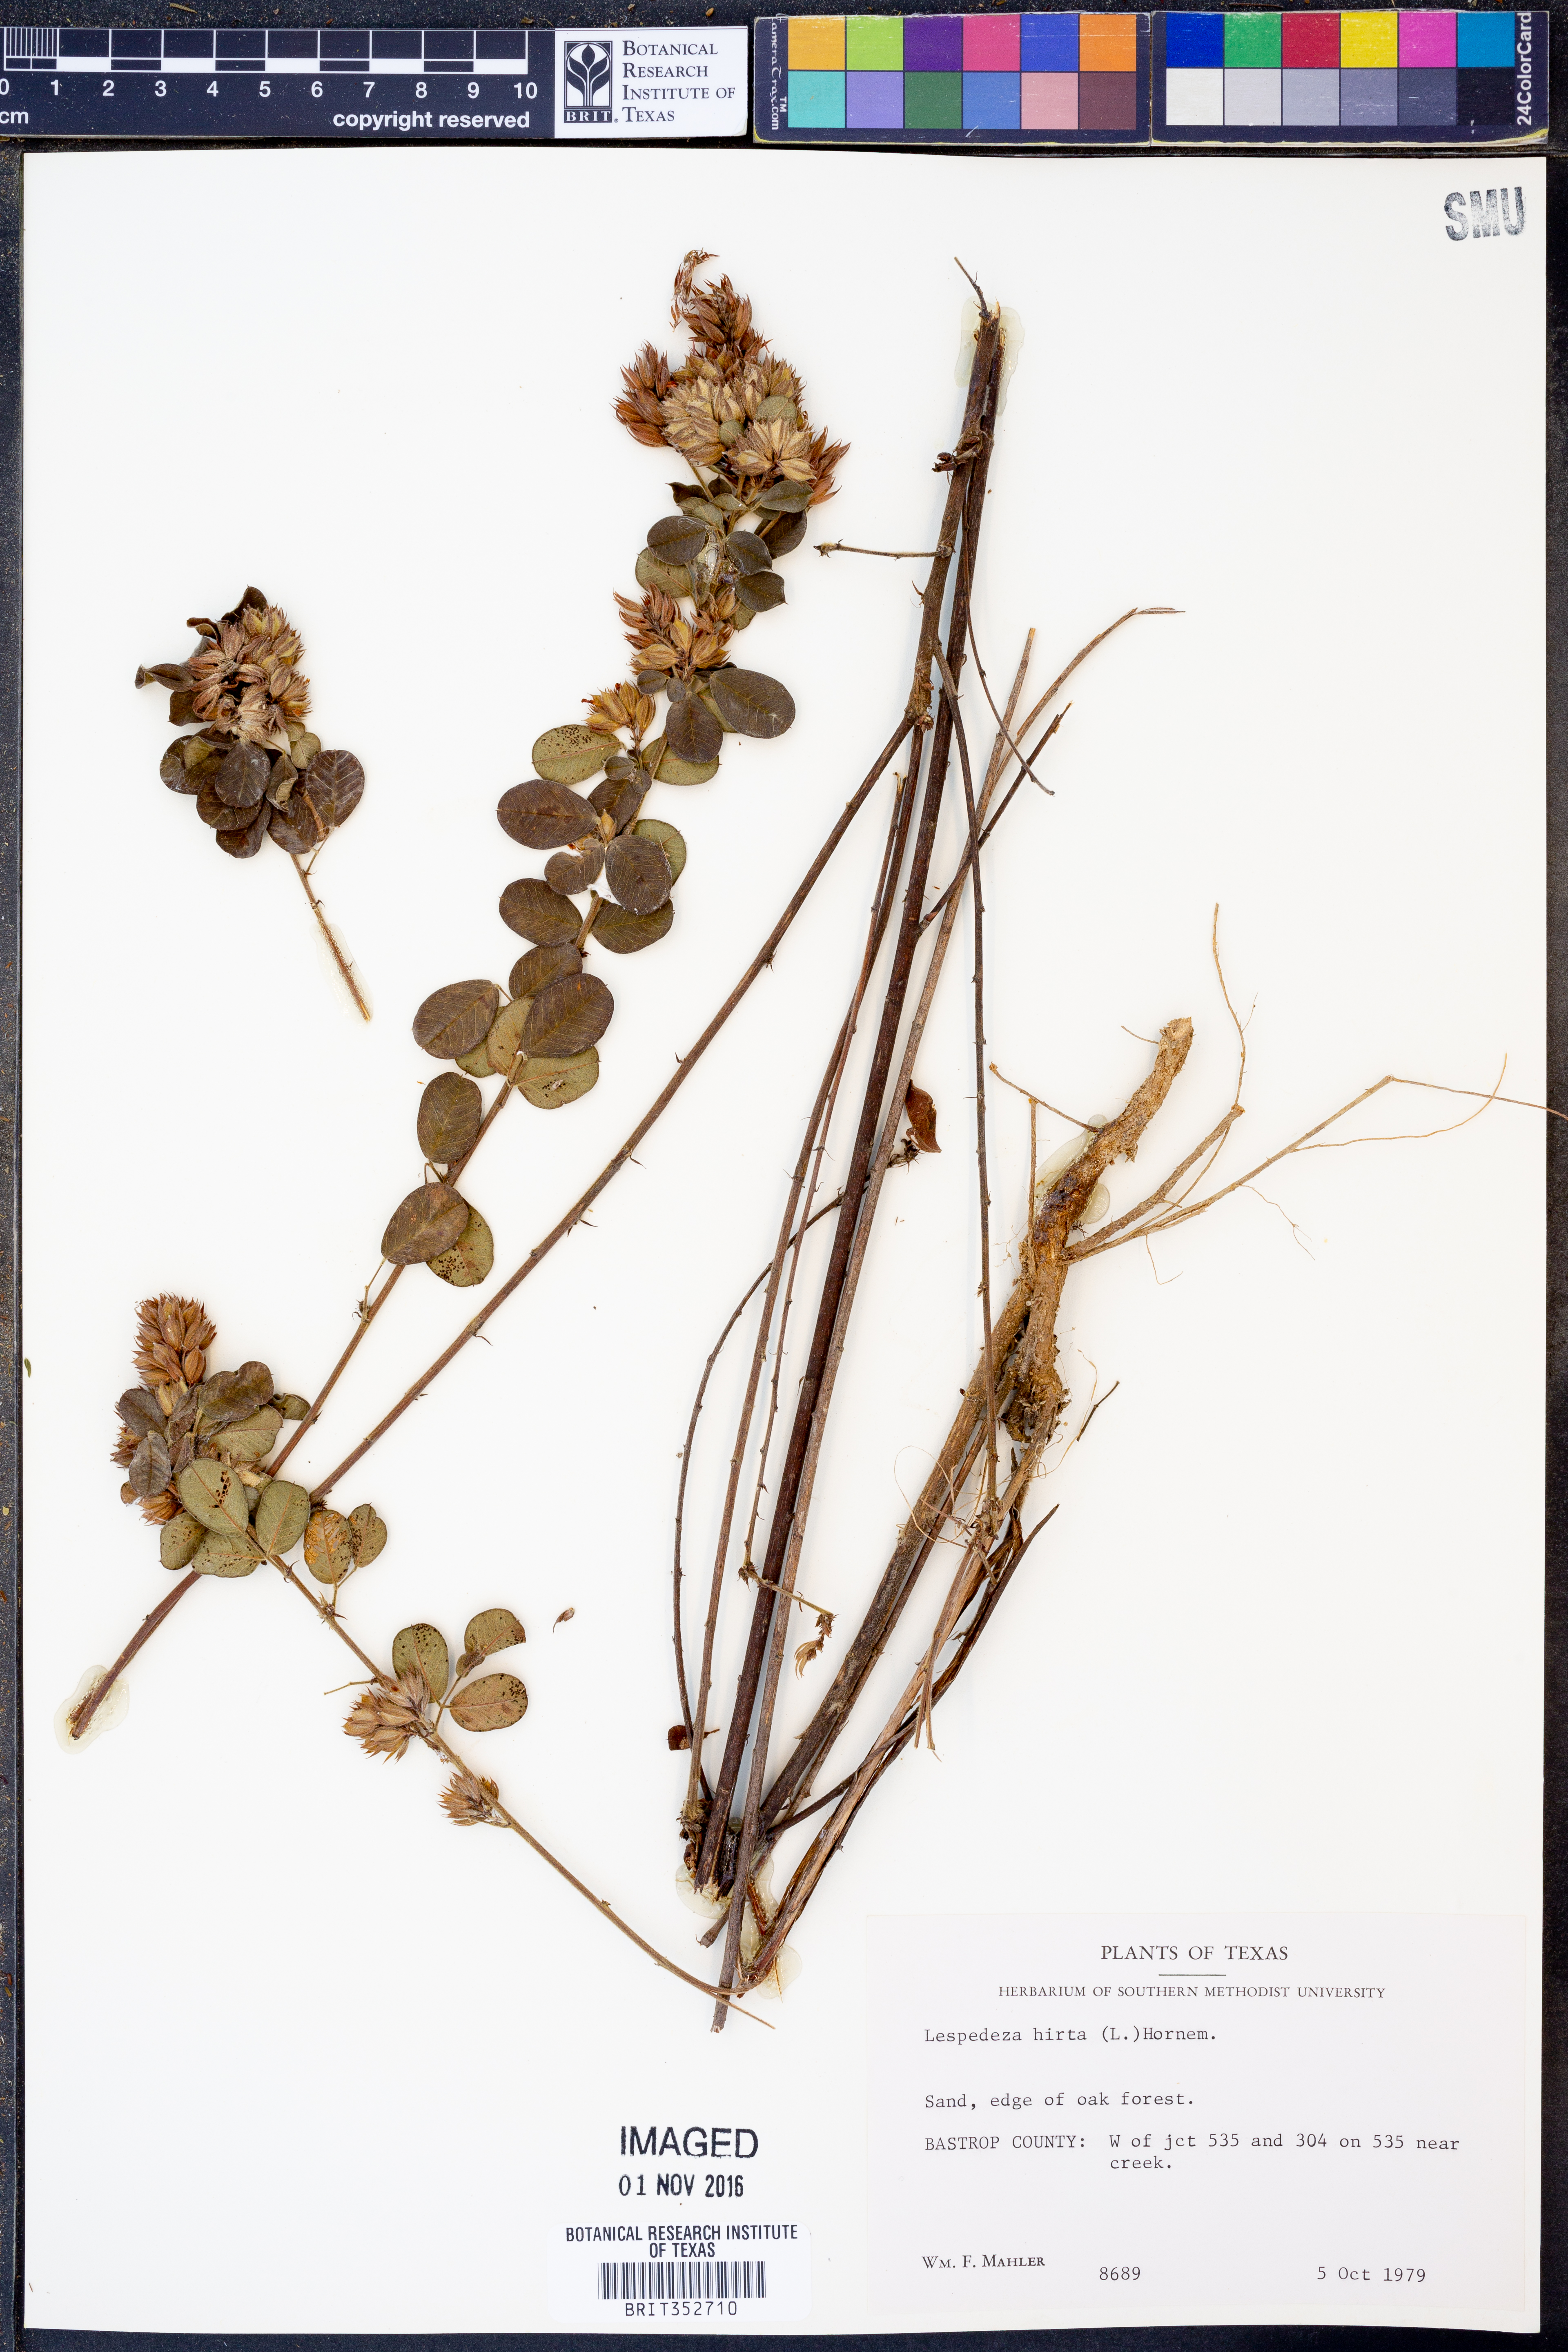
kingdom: Plantae
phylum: Tracheophyta
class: Magnoliopsida
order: Fabales
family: Fabaceae
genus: Lespedeza
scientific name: Lespedeza hirta
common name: Hairy lespedeza
